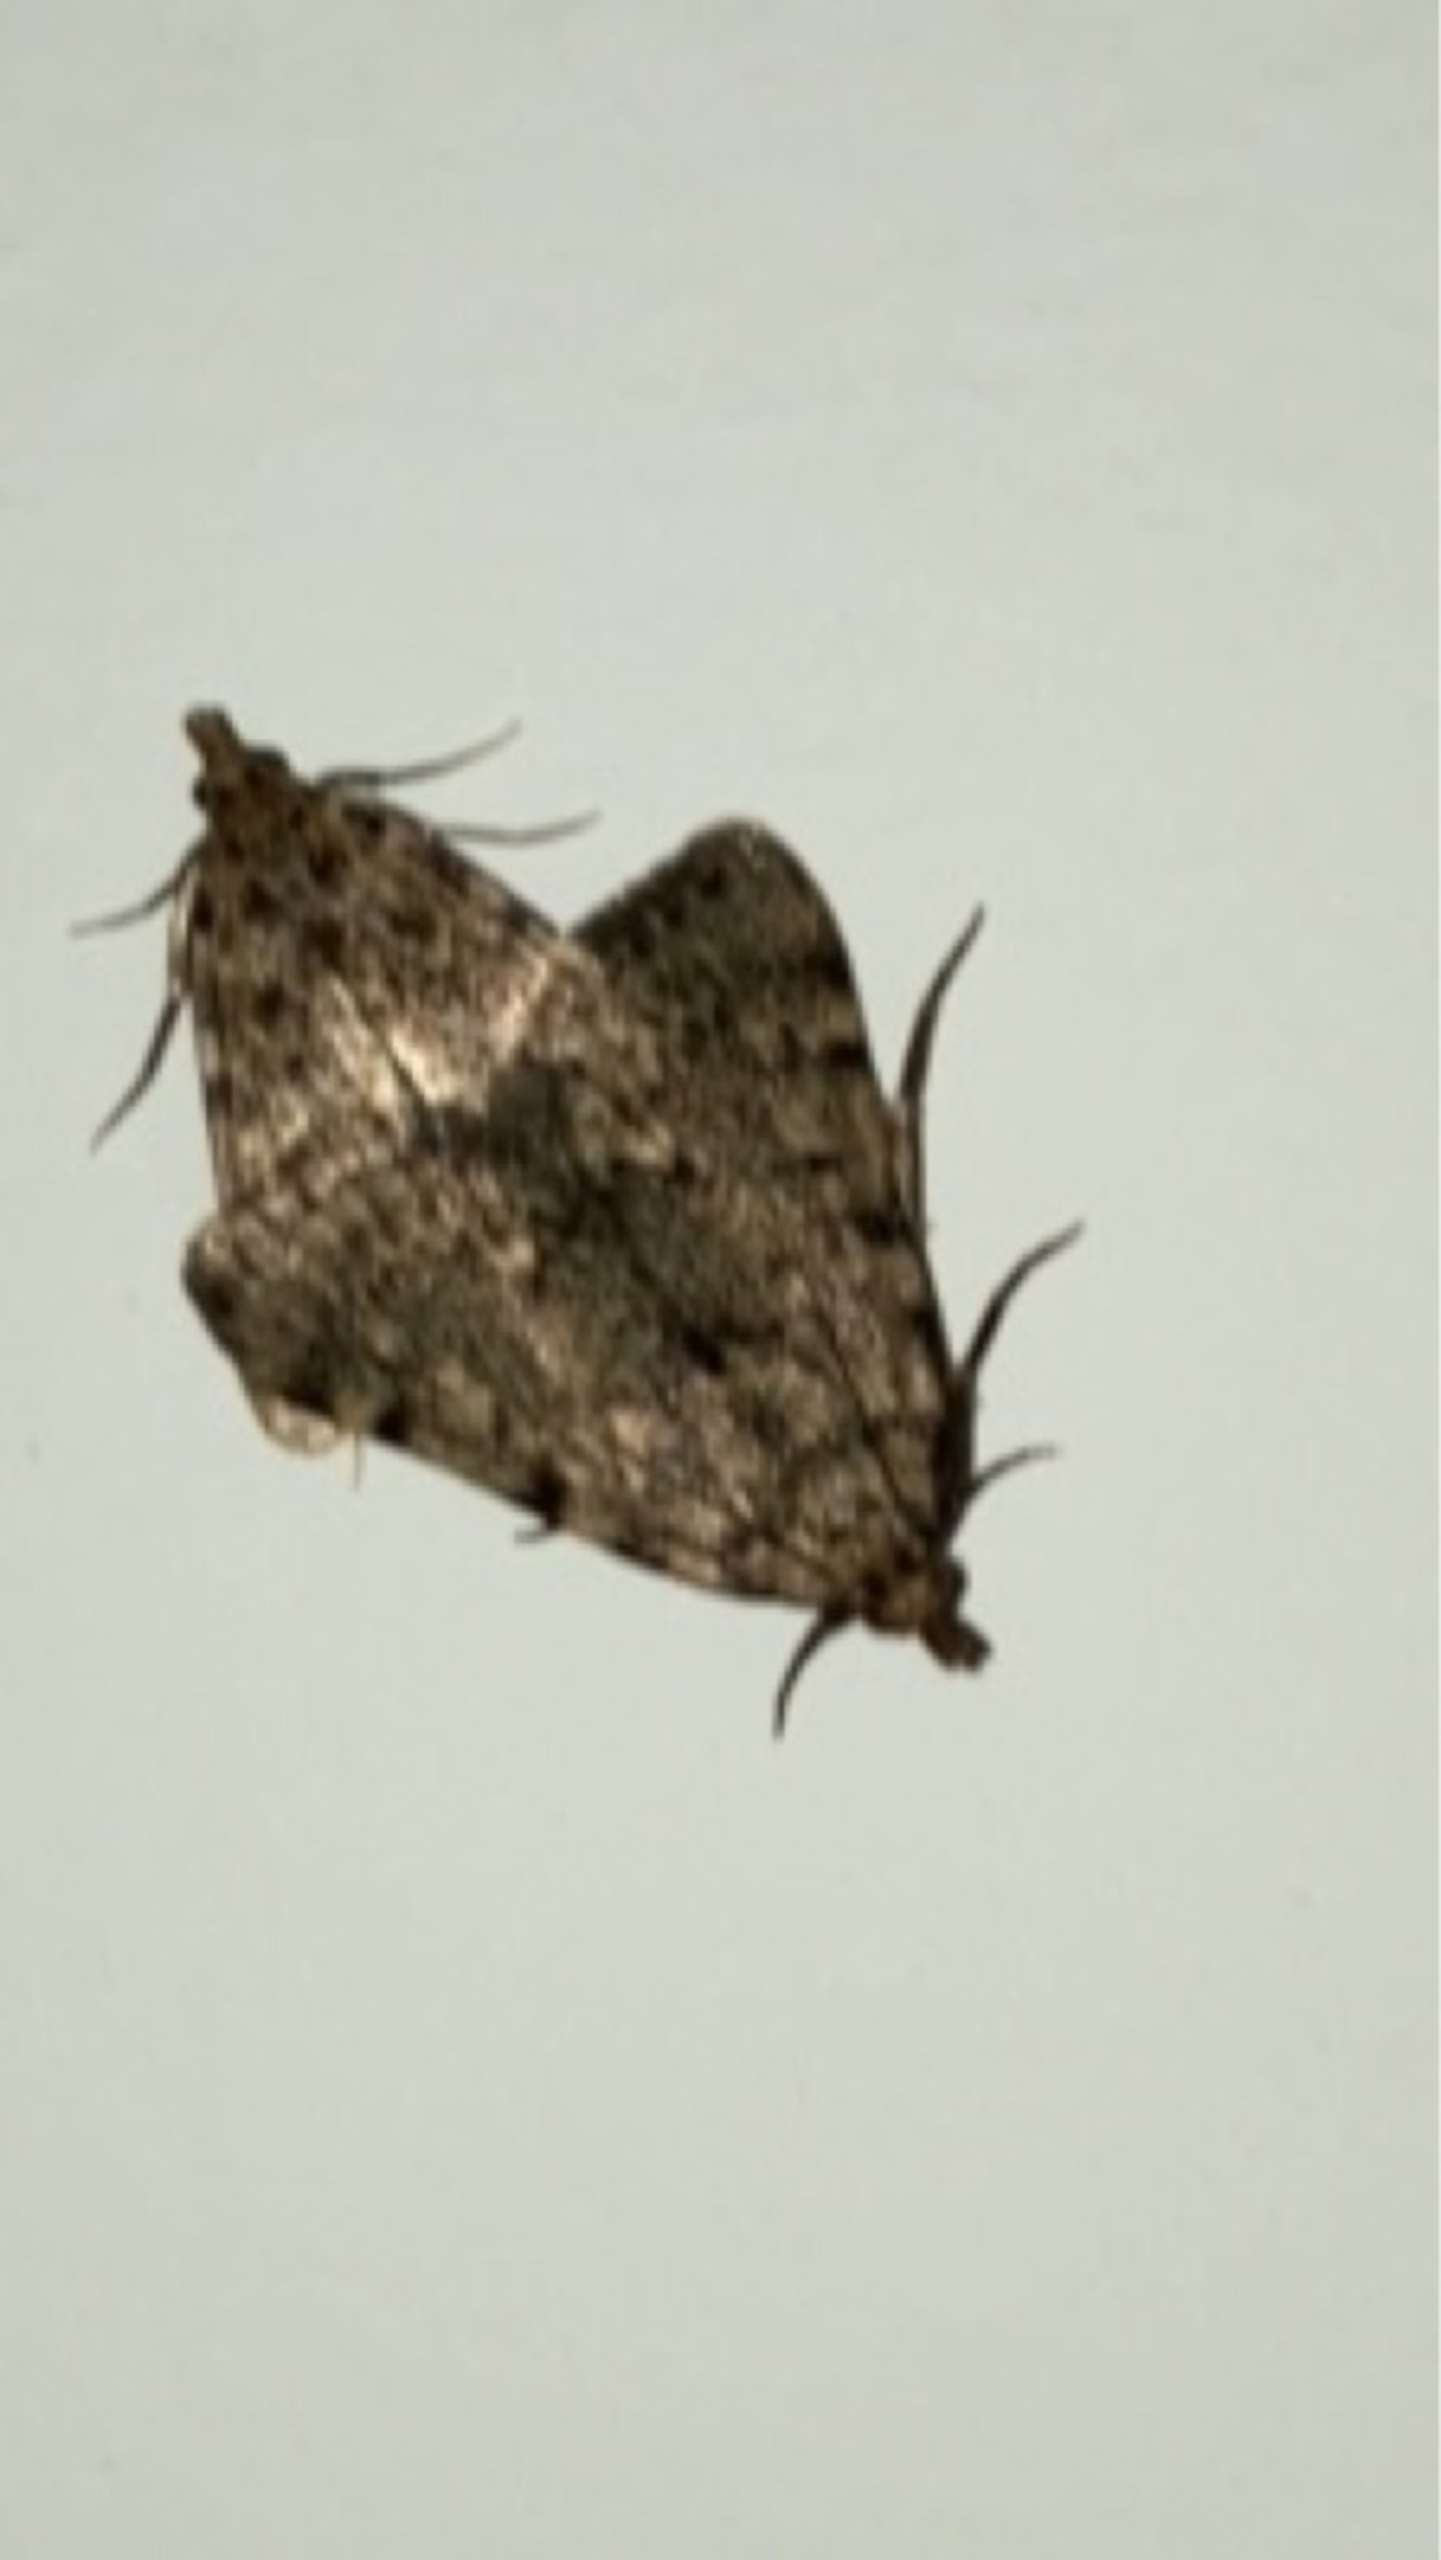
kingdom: Animalia
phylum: Arthropoda
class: Insecta
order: Lepidoptera
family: Pyralidae
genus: Aglossa
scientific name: Aglossa pinguinalis
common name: Fedtmøl
